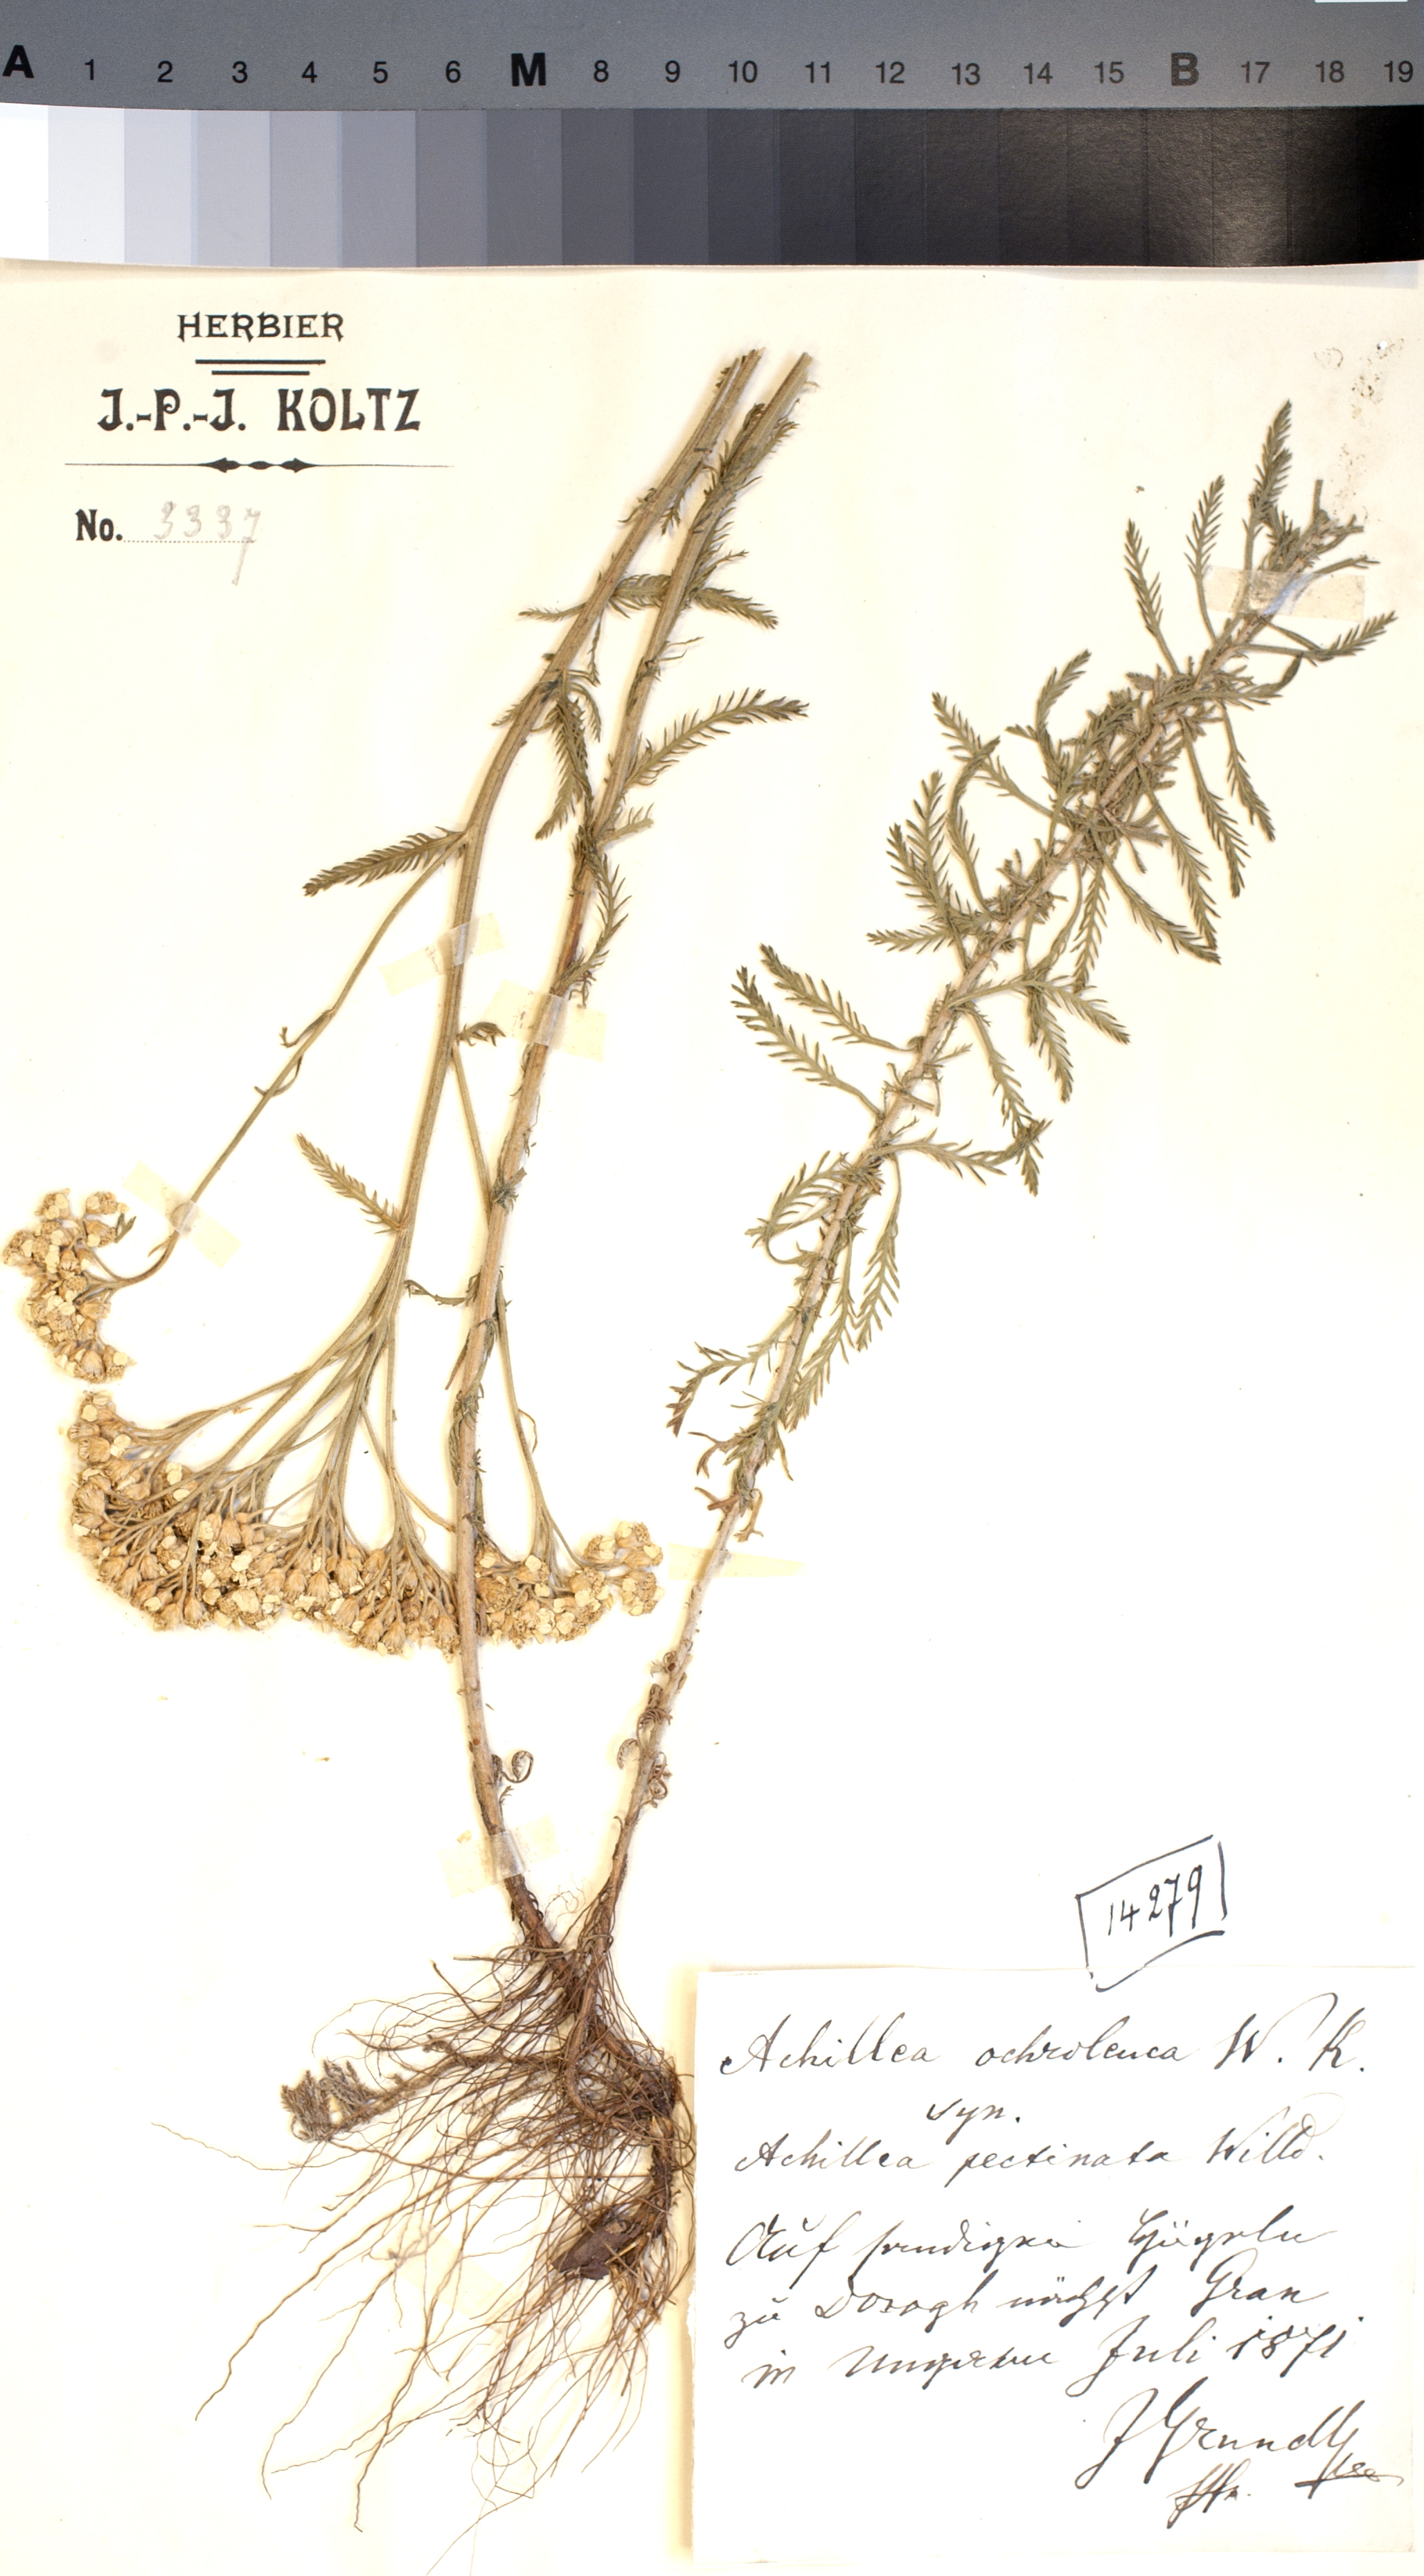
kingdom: Plantae
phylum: Tracheophyta
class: Magnoliopsida
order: Asterales
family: Asteraceae
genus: Achillea
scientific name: Achillea ochroleuca
